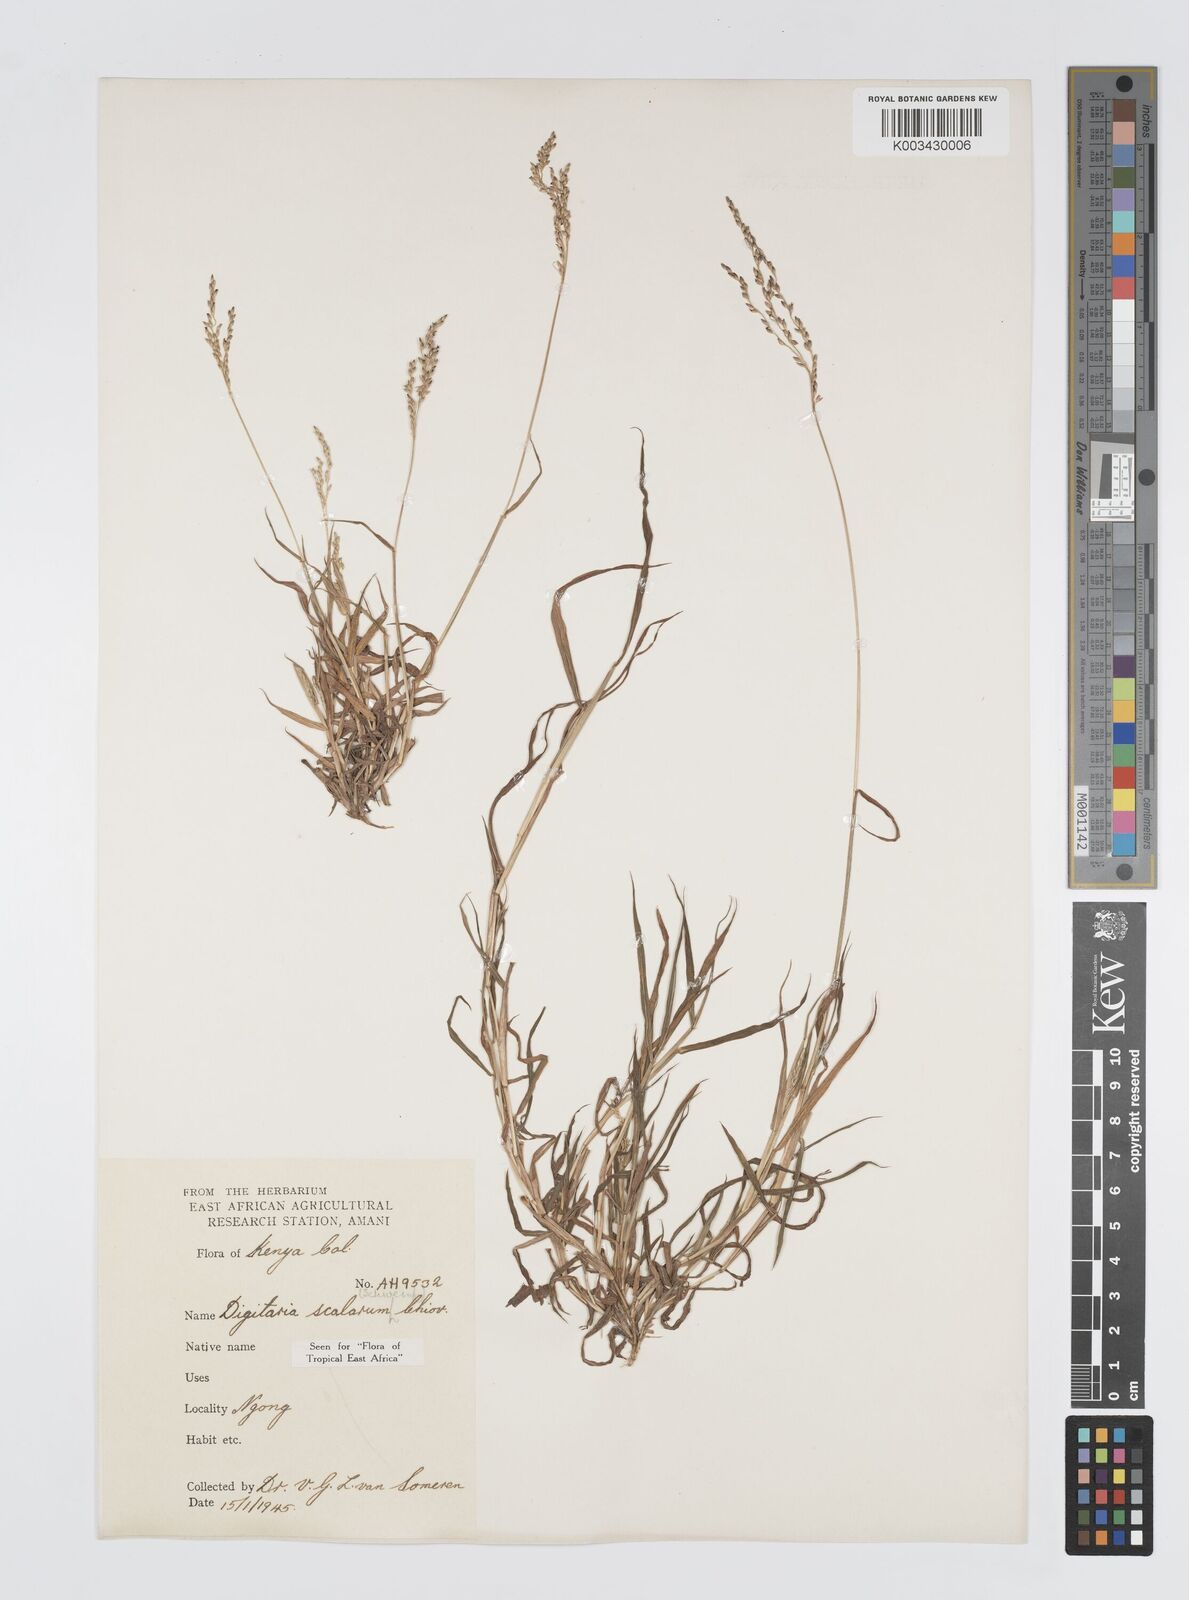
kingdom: Plantae
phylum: Tracheophyta
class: Liliopsida
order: Poales
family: Poaceae
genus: Digitaria
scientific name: Digitaria abyssinica
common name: African couchgrass
